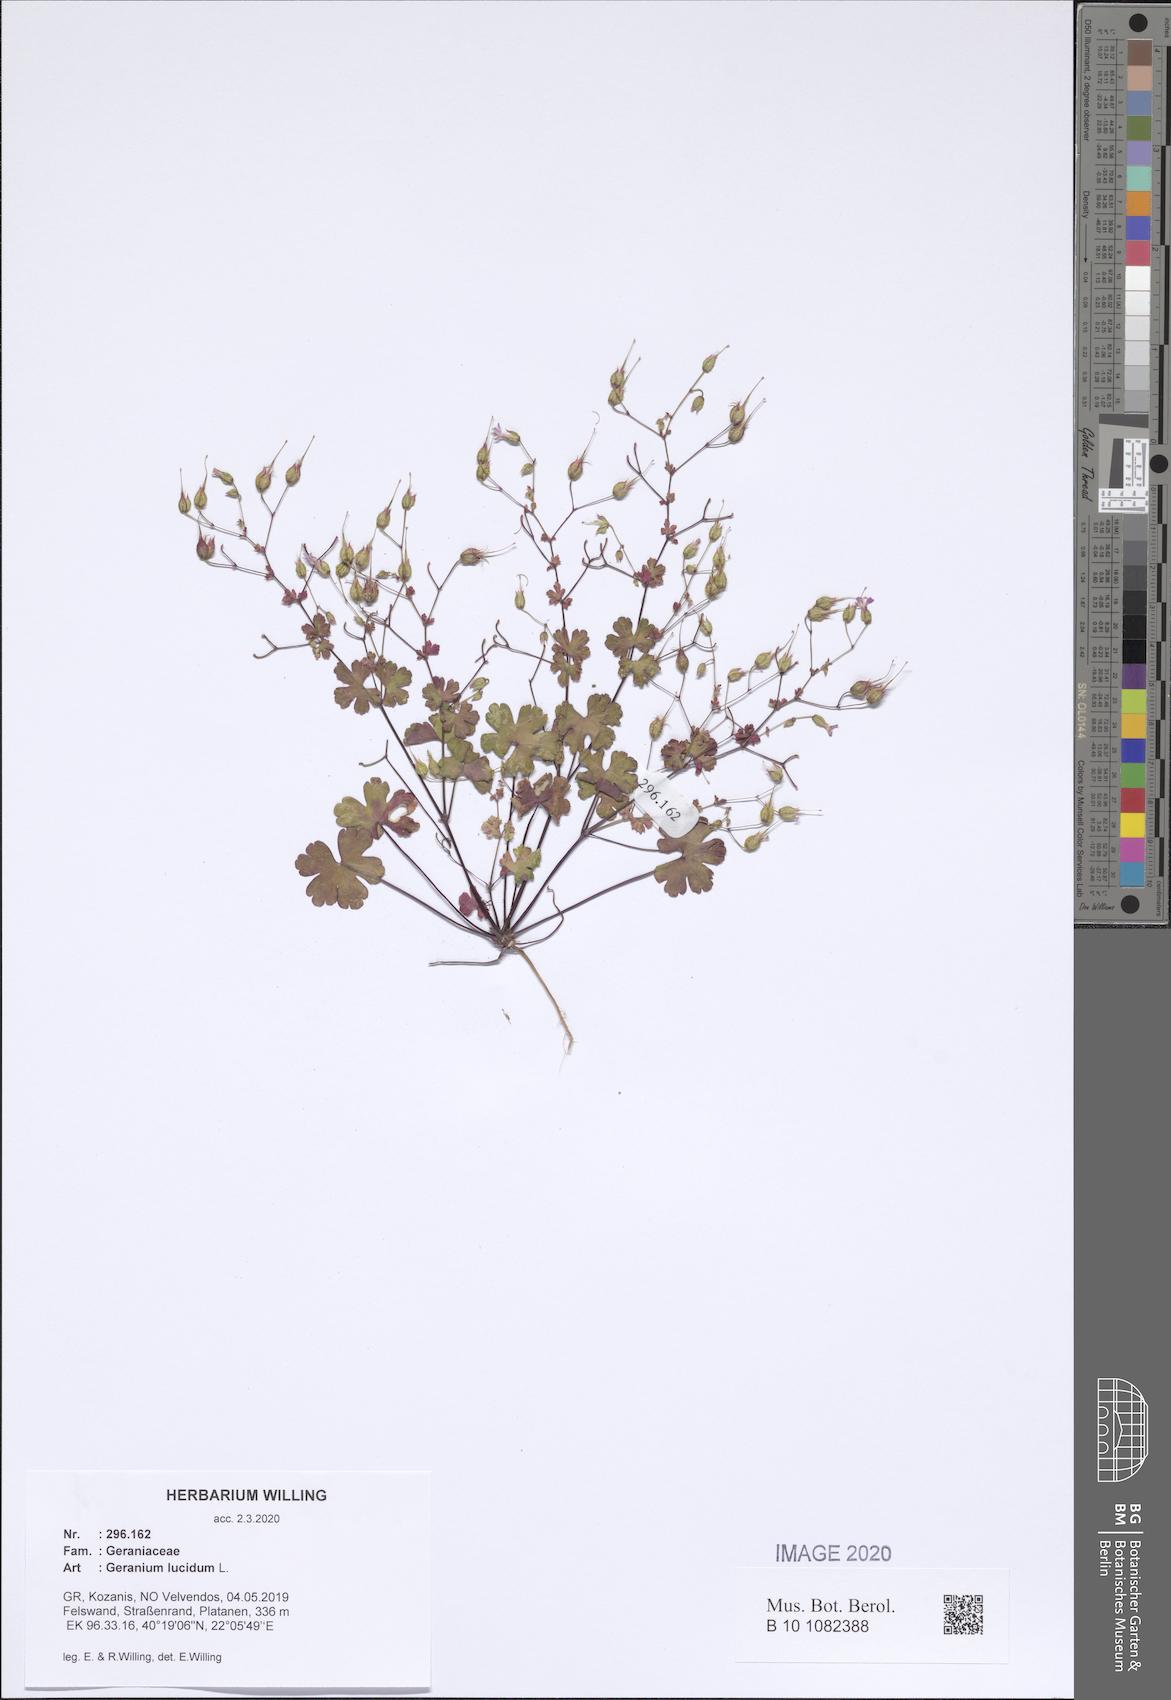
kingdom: Plantae
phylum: Tracheophyta
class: Magnoliopsida
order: Geraniales
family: Geraniaceae
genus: Geranium
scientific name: Geranium lucidum
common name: Shining crane's-bill
